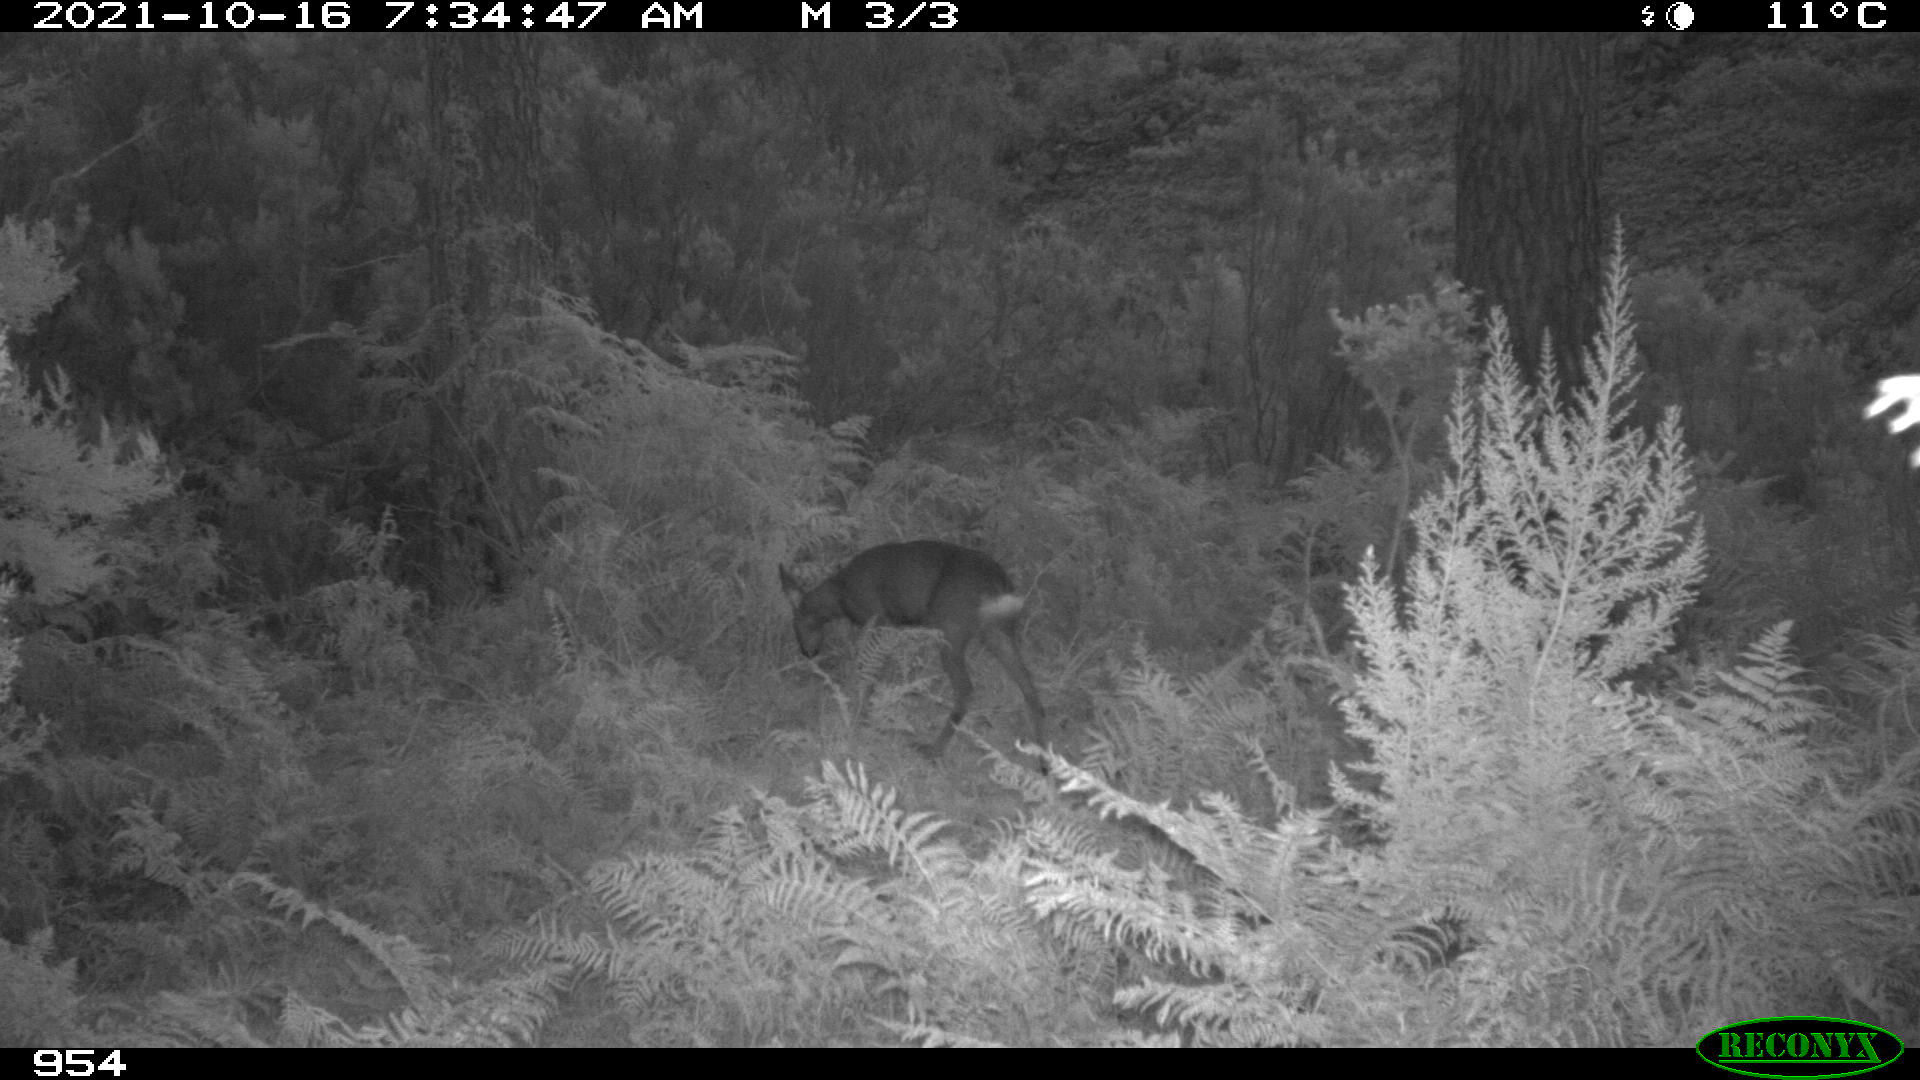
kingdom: Animalia
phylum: Chordata
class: Mammalia
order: Artiodactyla
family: Cervidae
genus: Capreolus
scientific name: Capreolus capreolus
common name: Western roe deer
